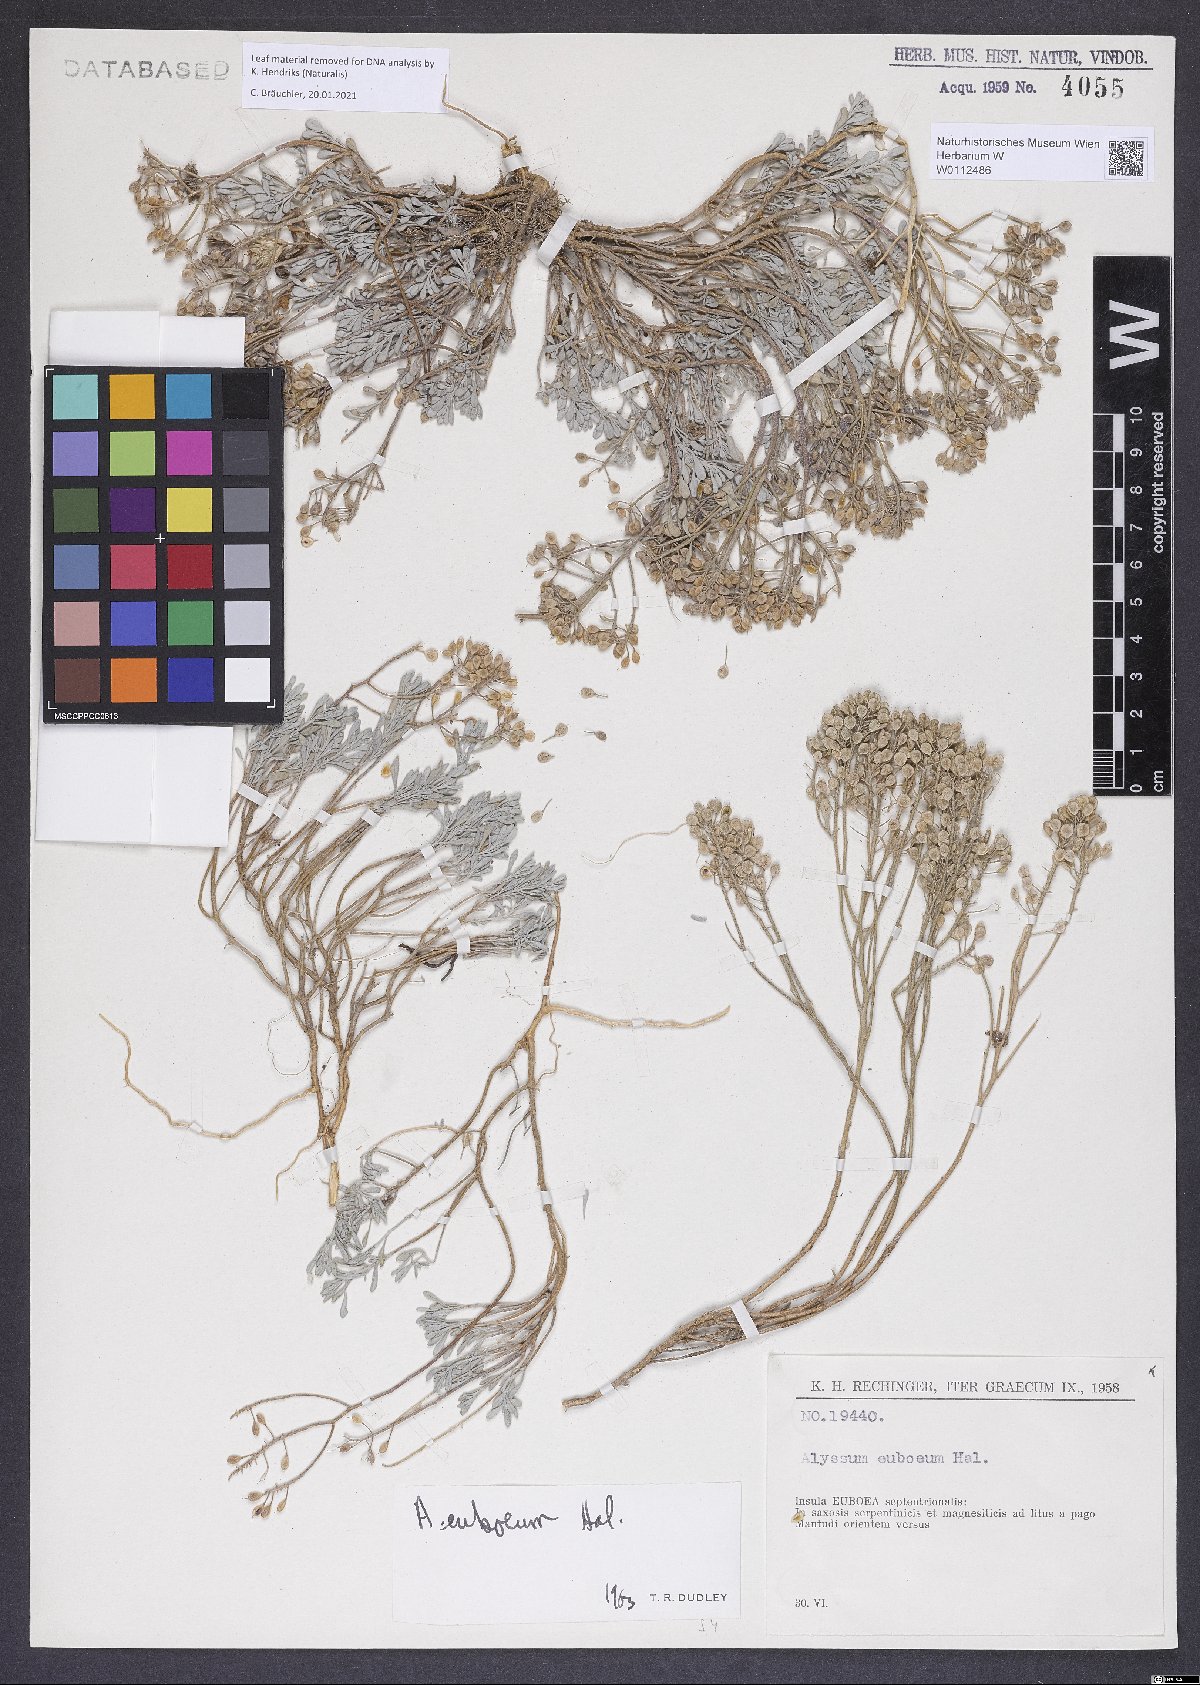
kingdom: Plantae
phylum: Tracheophyta
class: Magnoliopsida
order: Brassicales
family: Brassicaceae
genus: Odontarrhena
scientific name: Odontarrhena euboea
